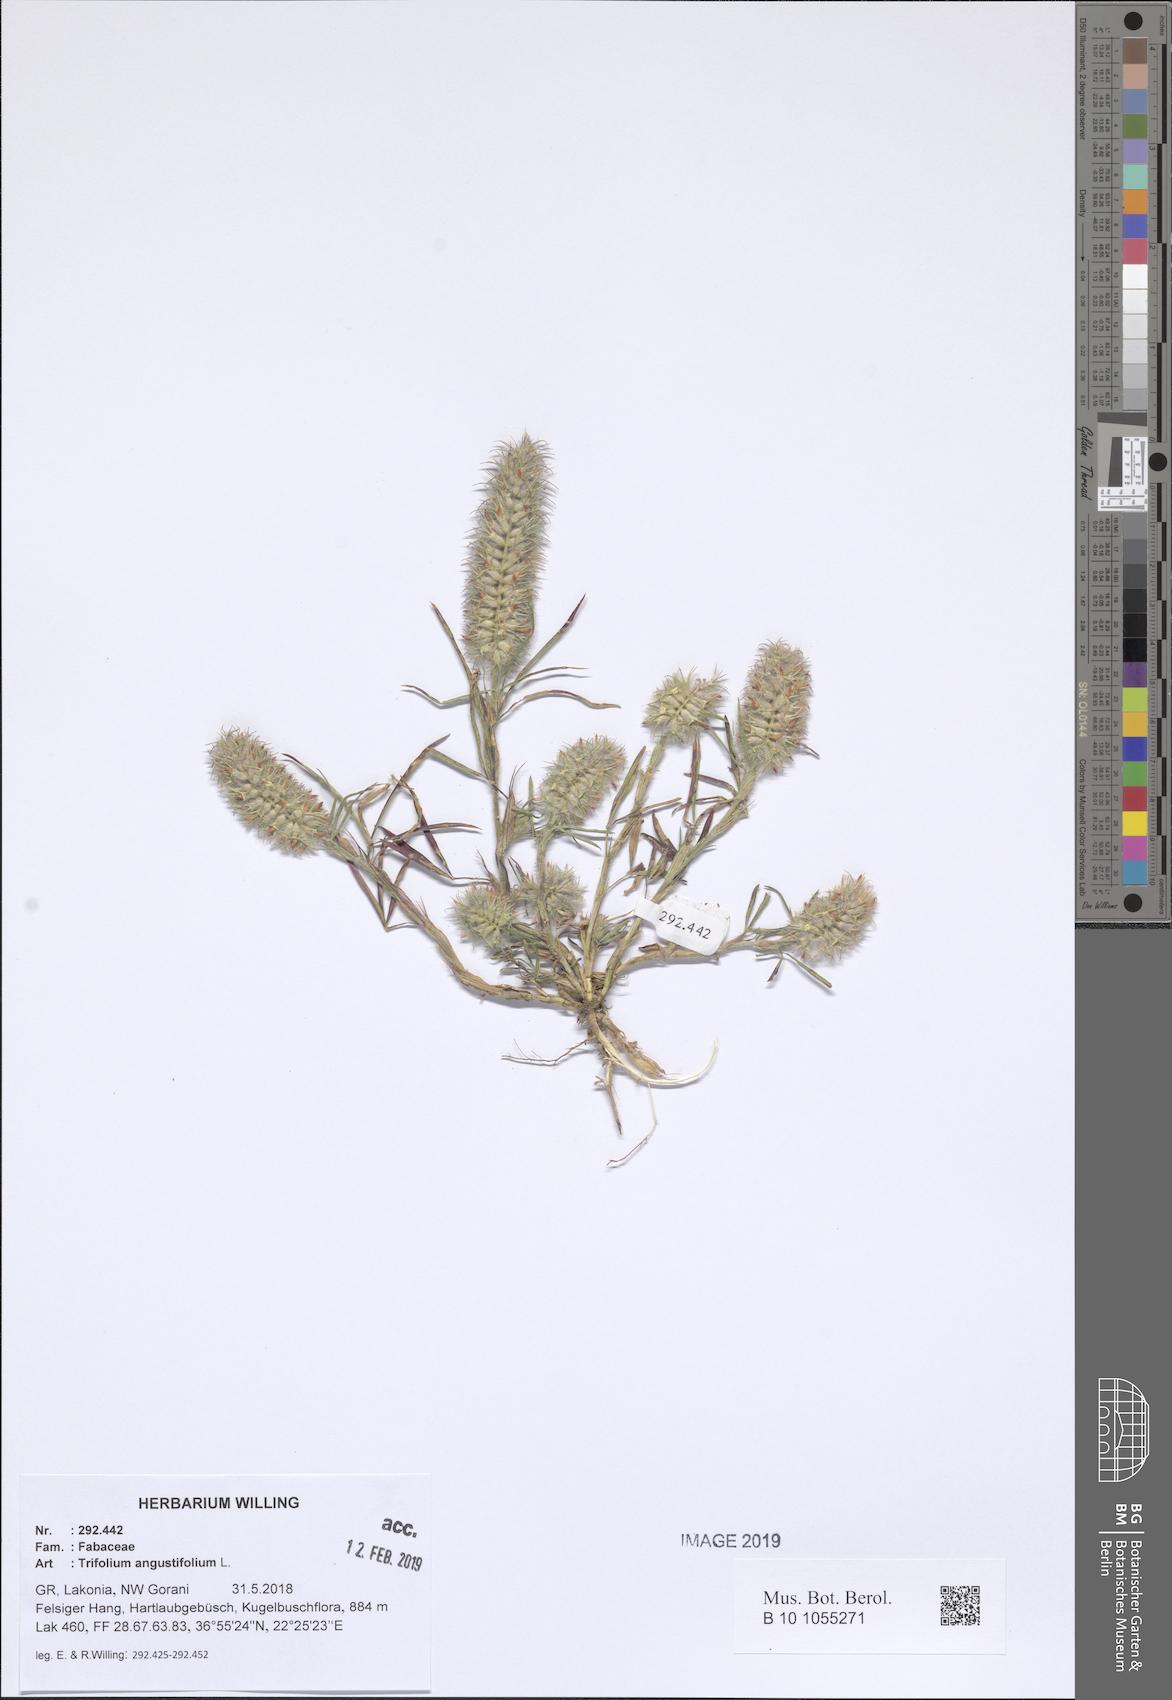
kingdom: Plantae
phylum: Tracheophyta
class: Magnoliopsida
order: Fabales
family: Fabaceae
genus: Trifolium
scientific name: Trifolium angustifolium
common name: Narrow clover
